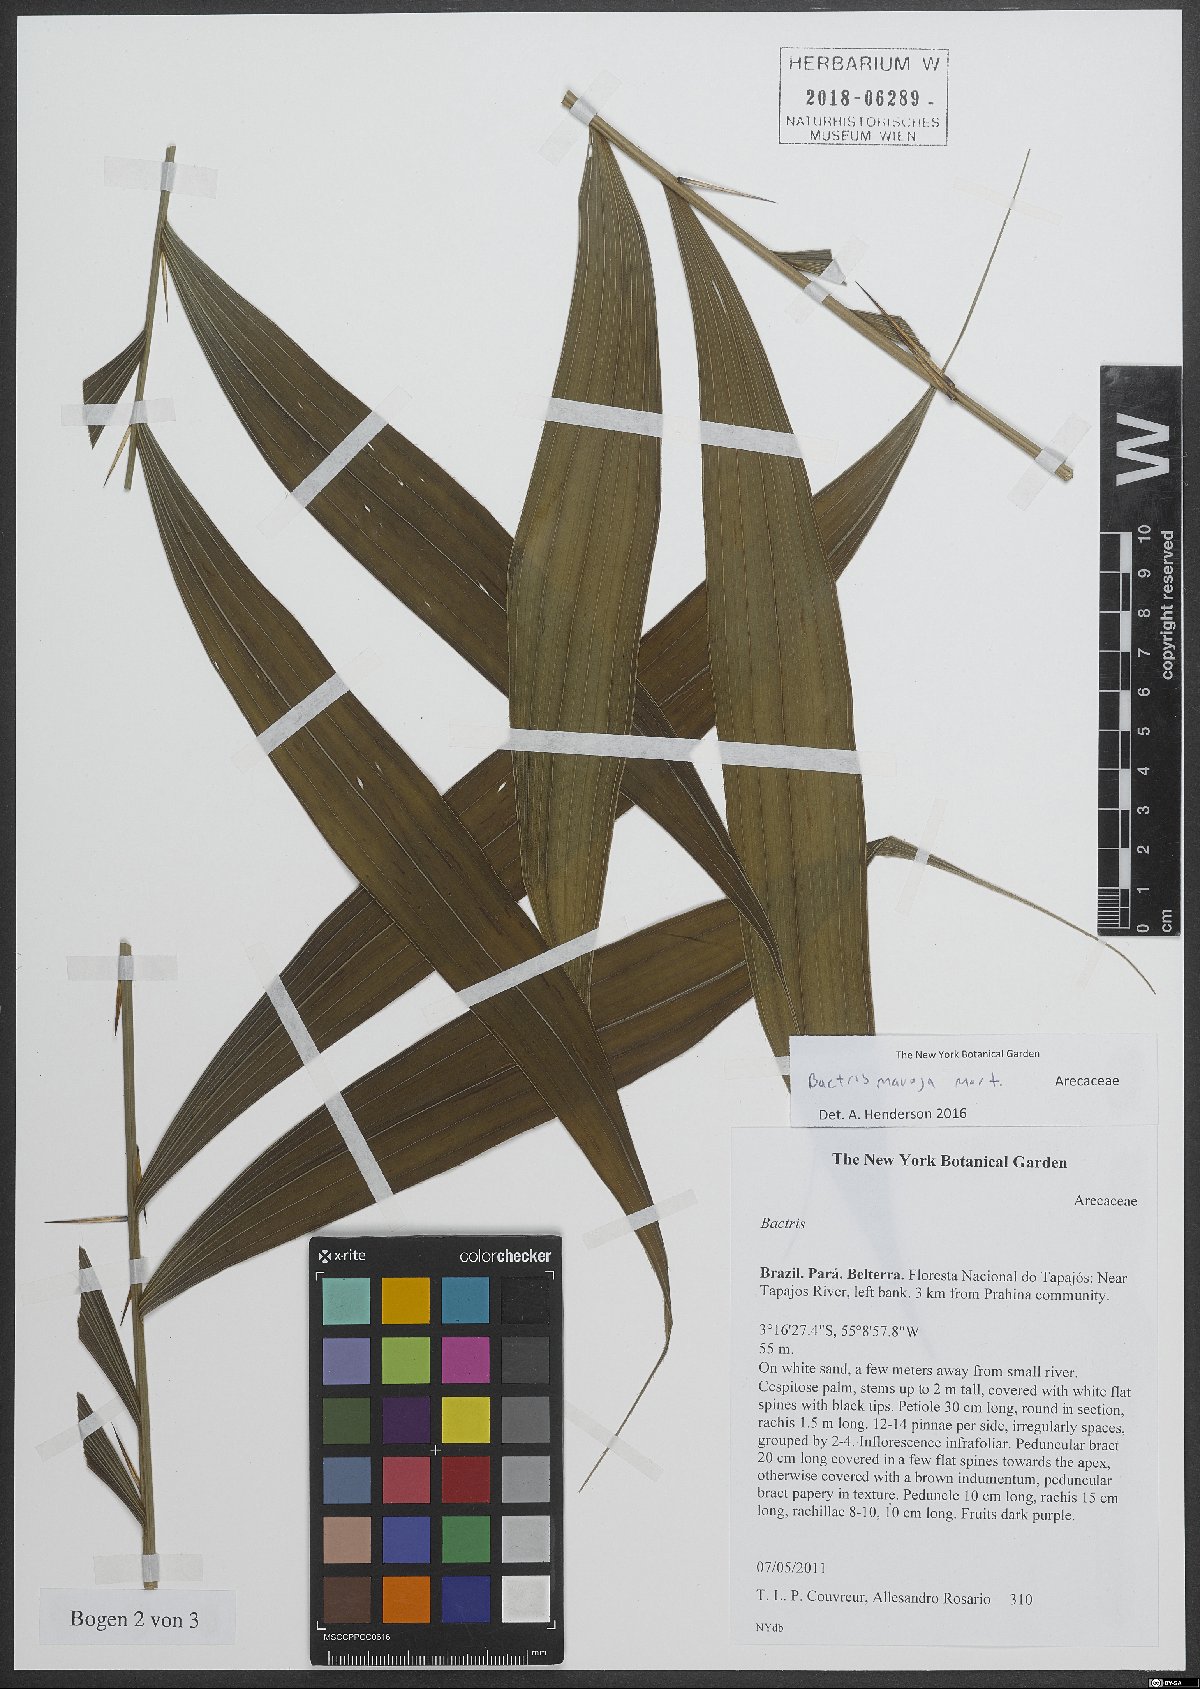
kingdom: Plantae
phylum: Tracheophyta
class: Liliopsida
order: Arecales
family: Arecaceae
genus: Bactris
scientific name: Bactris maraja
